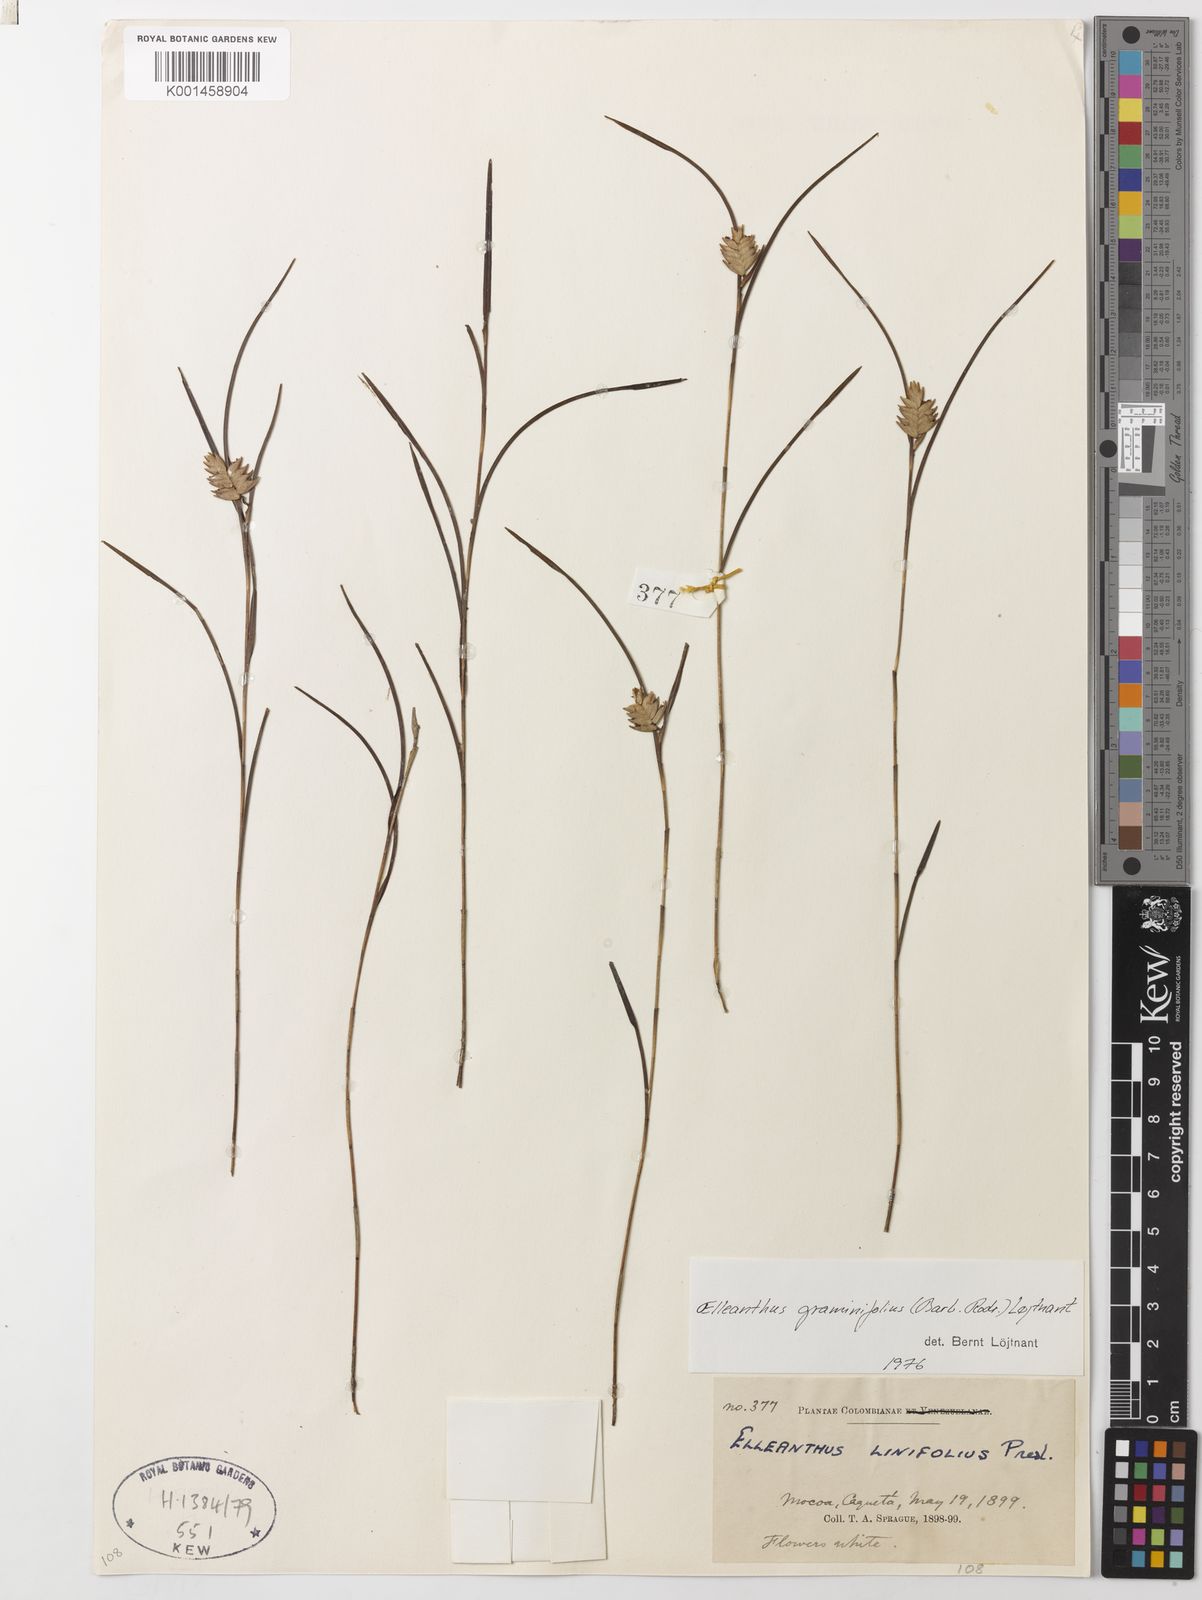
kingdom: Plantae
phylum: Tracheophyta
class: Liliopsida
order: Asparagales
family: Orchidaceae
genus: Elleanthus
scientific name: Elleanthus graminifolius
